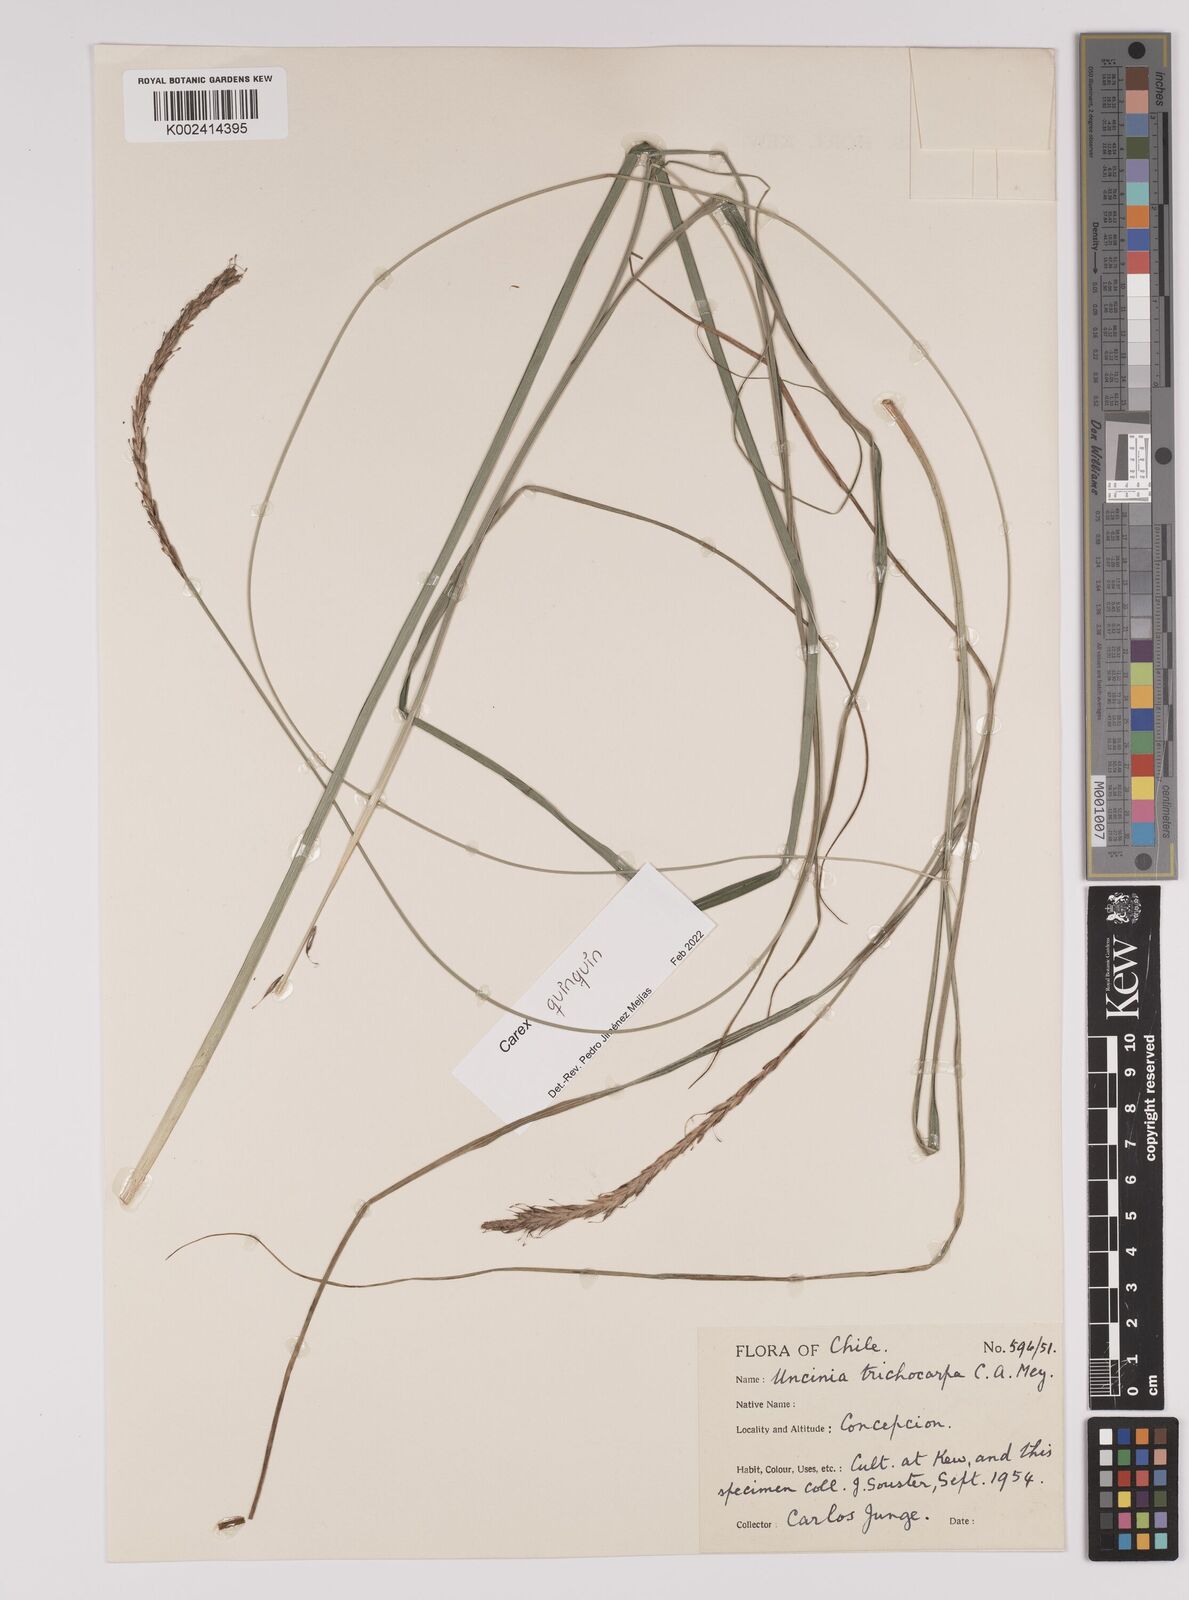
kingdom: Plantae
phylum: Tracheophyta
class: Liliopsida
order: Poales
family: Cyperaceae
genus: Carex
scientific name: Carex quinquin
